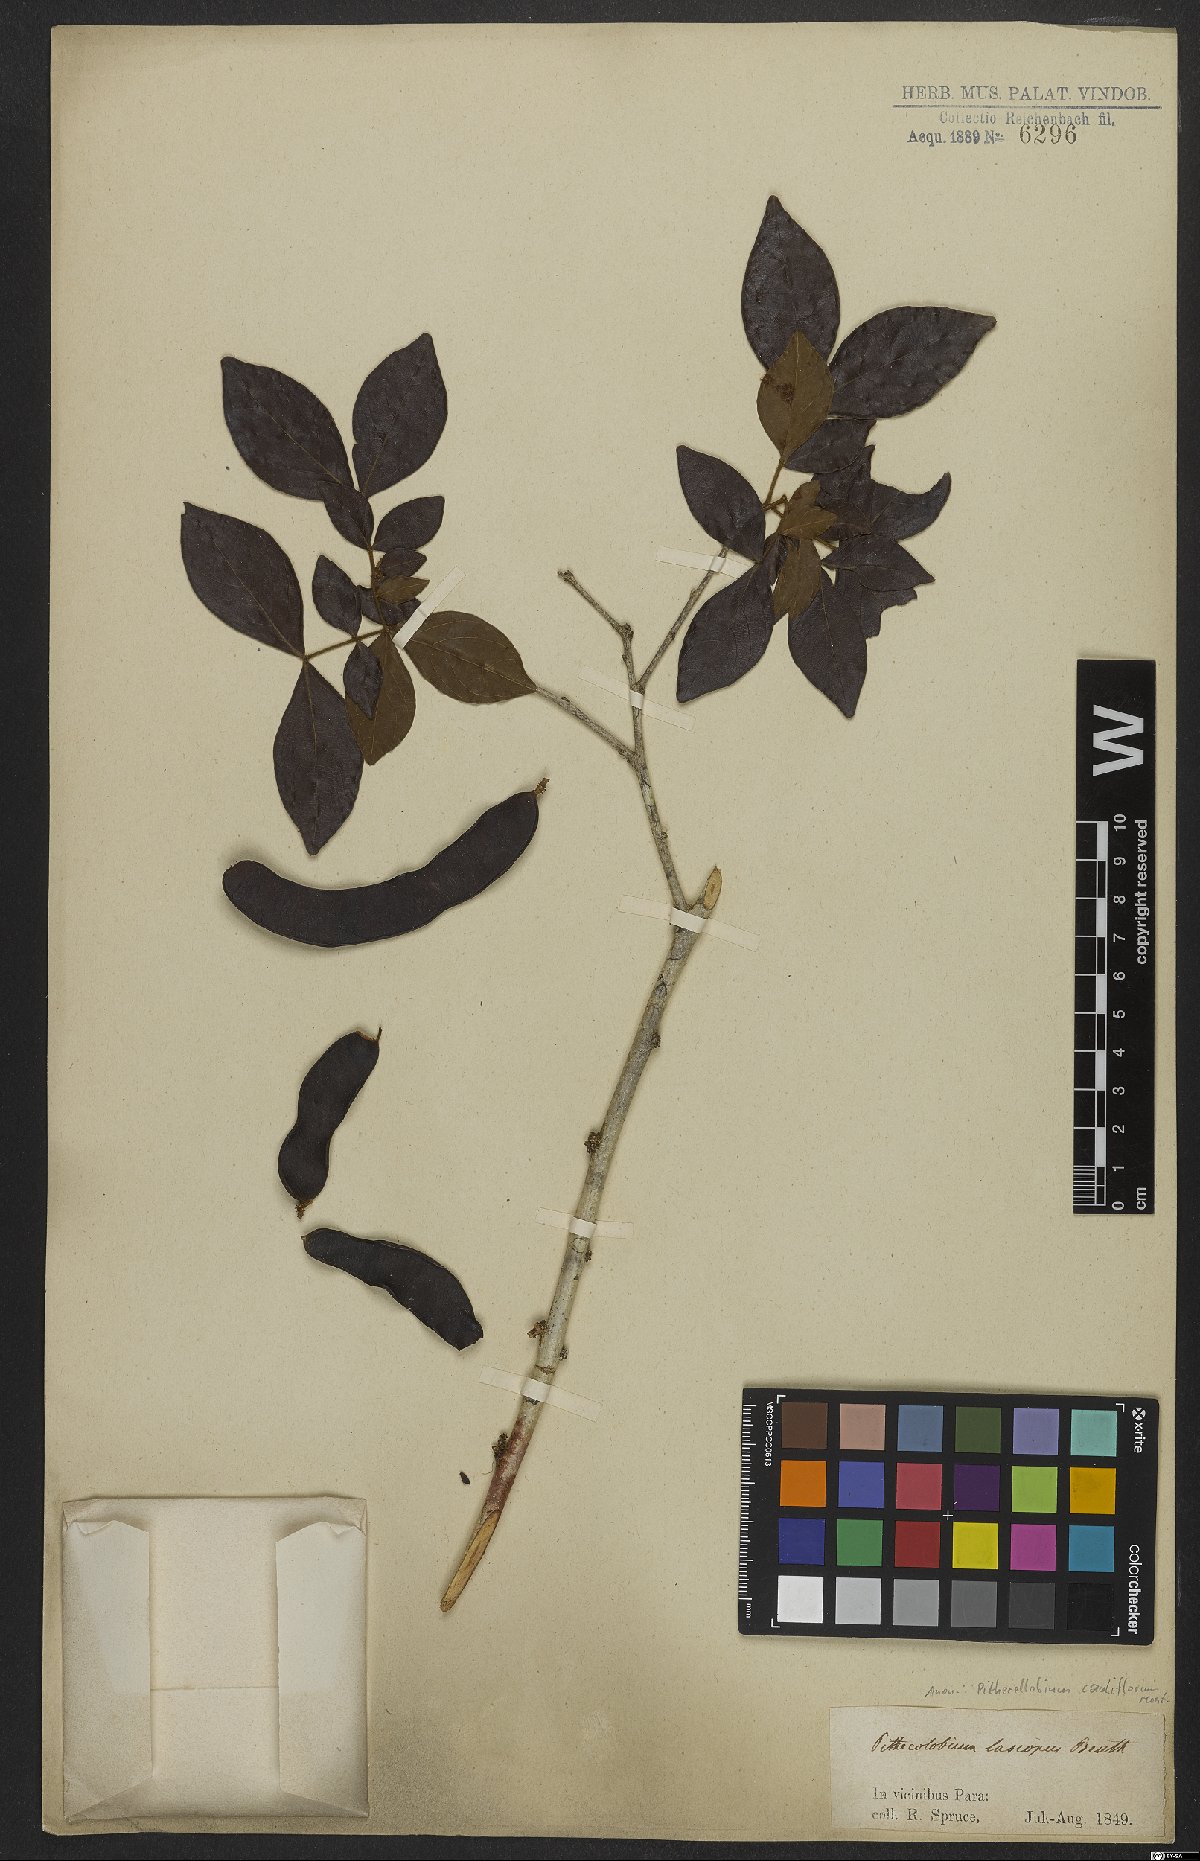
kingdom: Plantae
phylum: Tracheophyta
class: Magnoliopsida
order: Fabales
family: Fabaceae
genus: Zygia
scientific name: Zygia cauliflora
